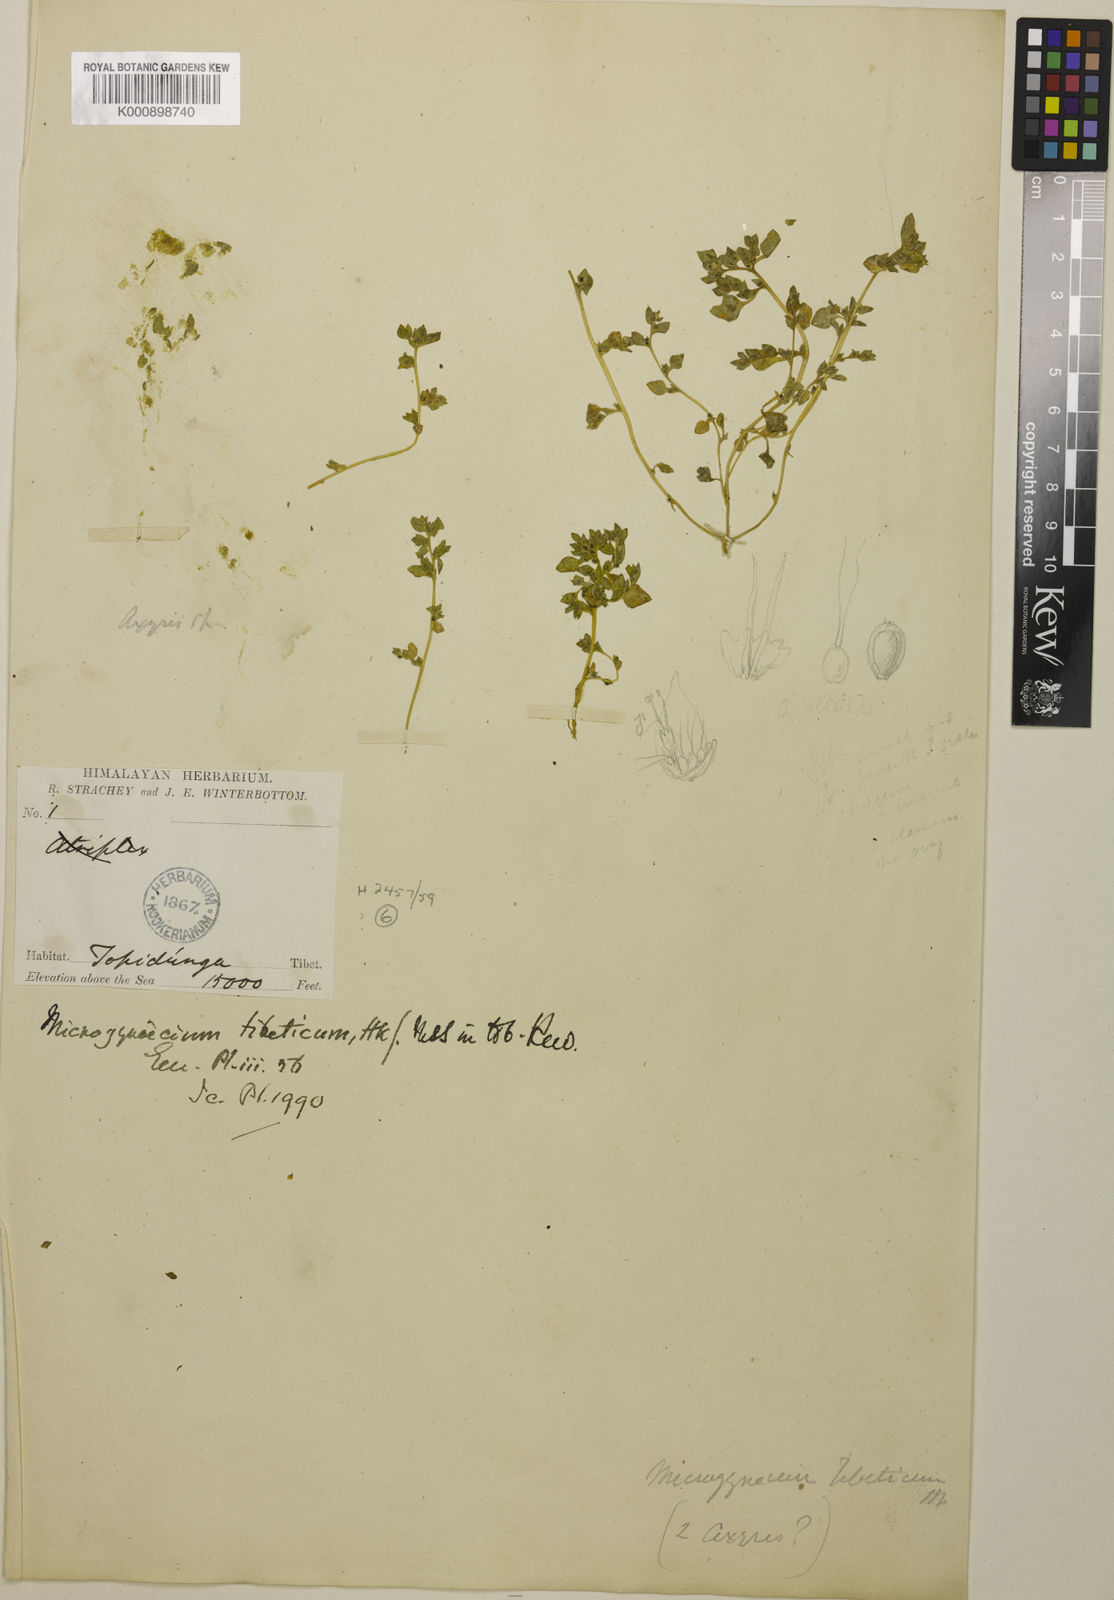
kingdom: Plantae
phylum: Tracheophyta
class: Magnoliopsida
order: Caryophyllales
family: Amaranthaceae
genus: Microgynoecium
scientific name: Microgynoecium tibeticum
